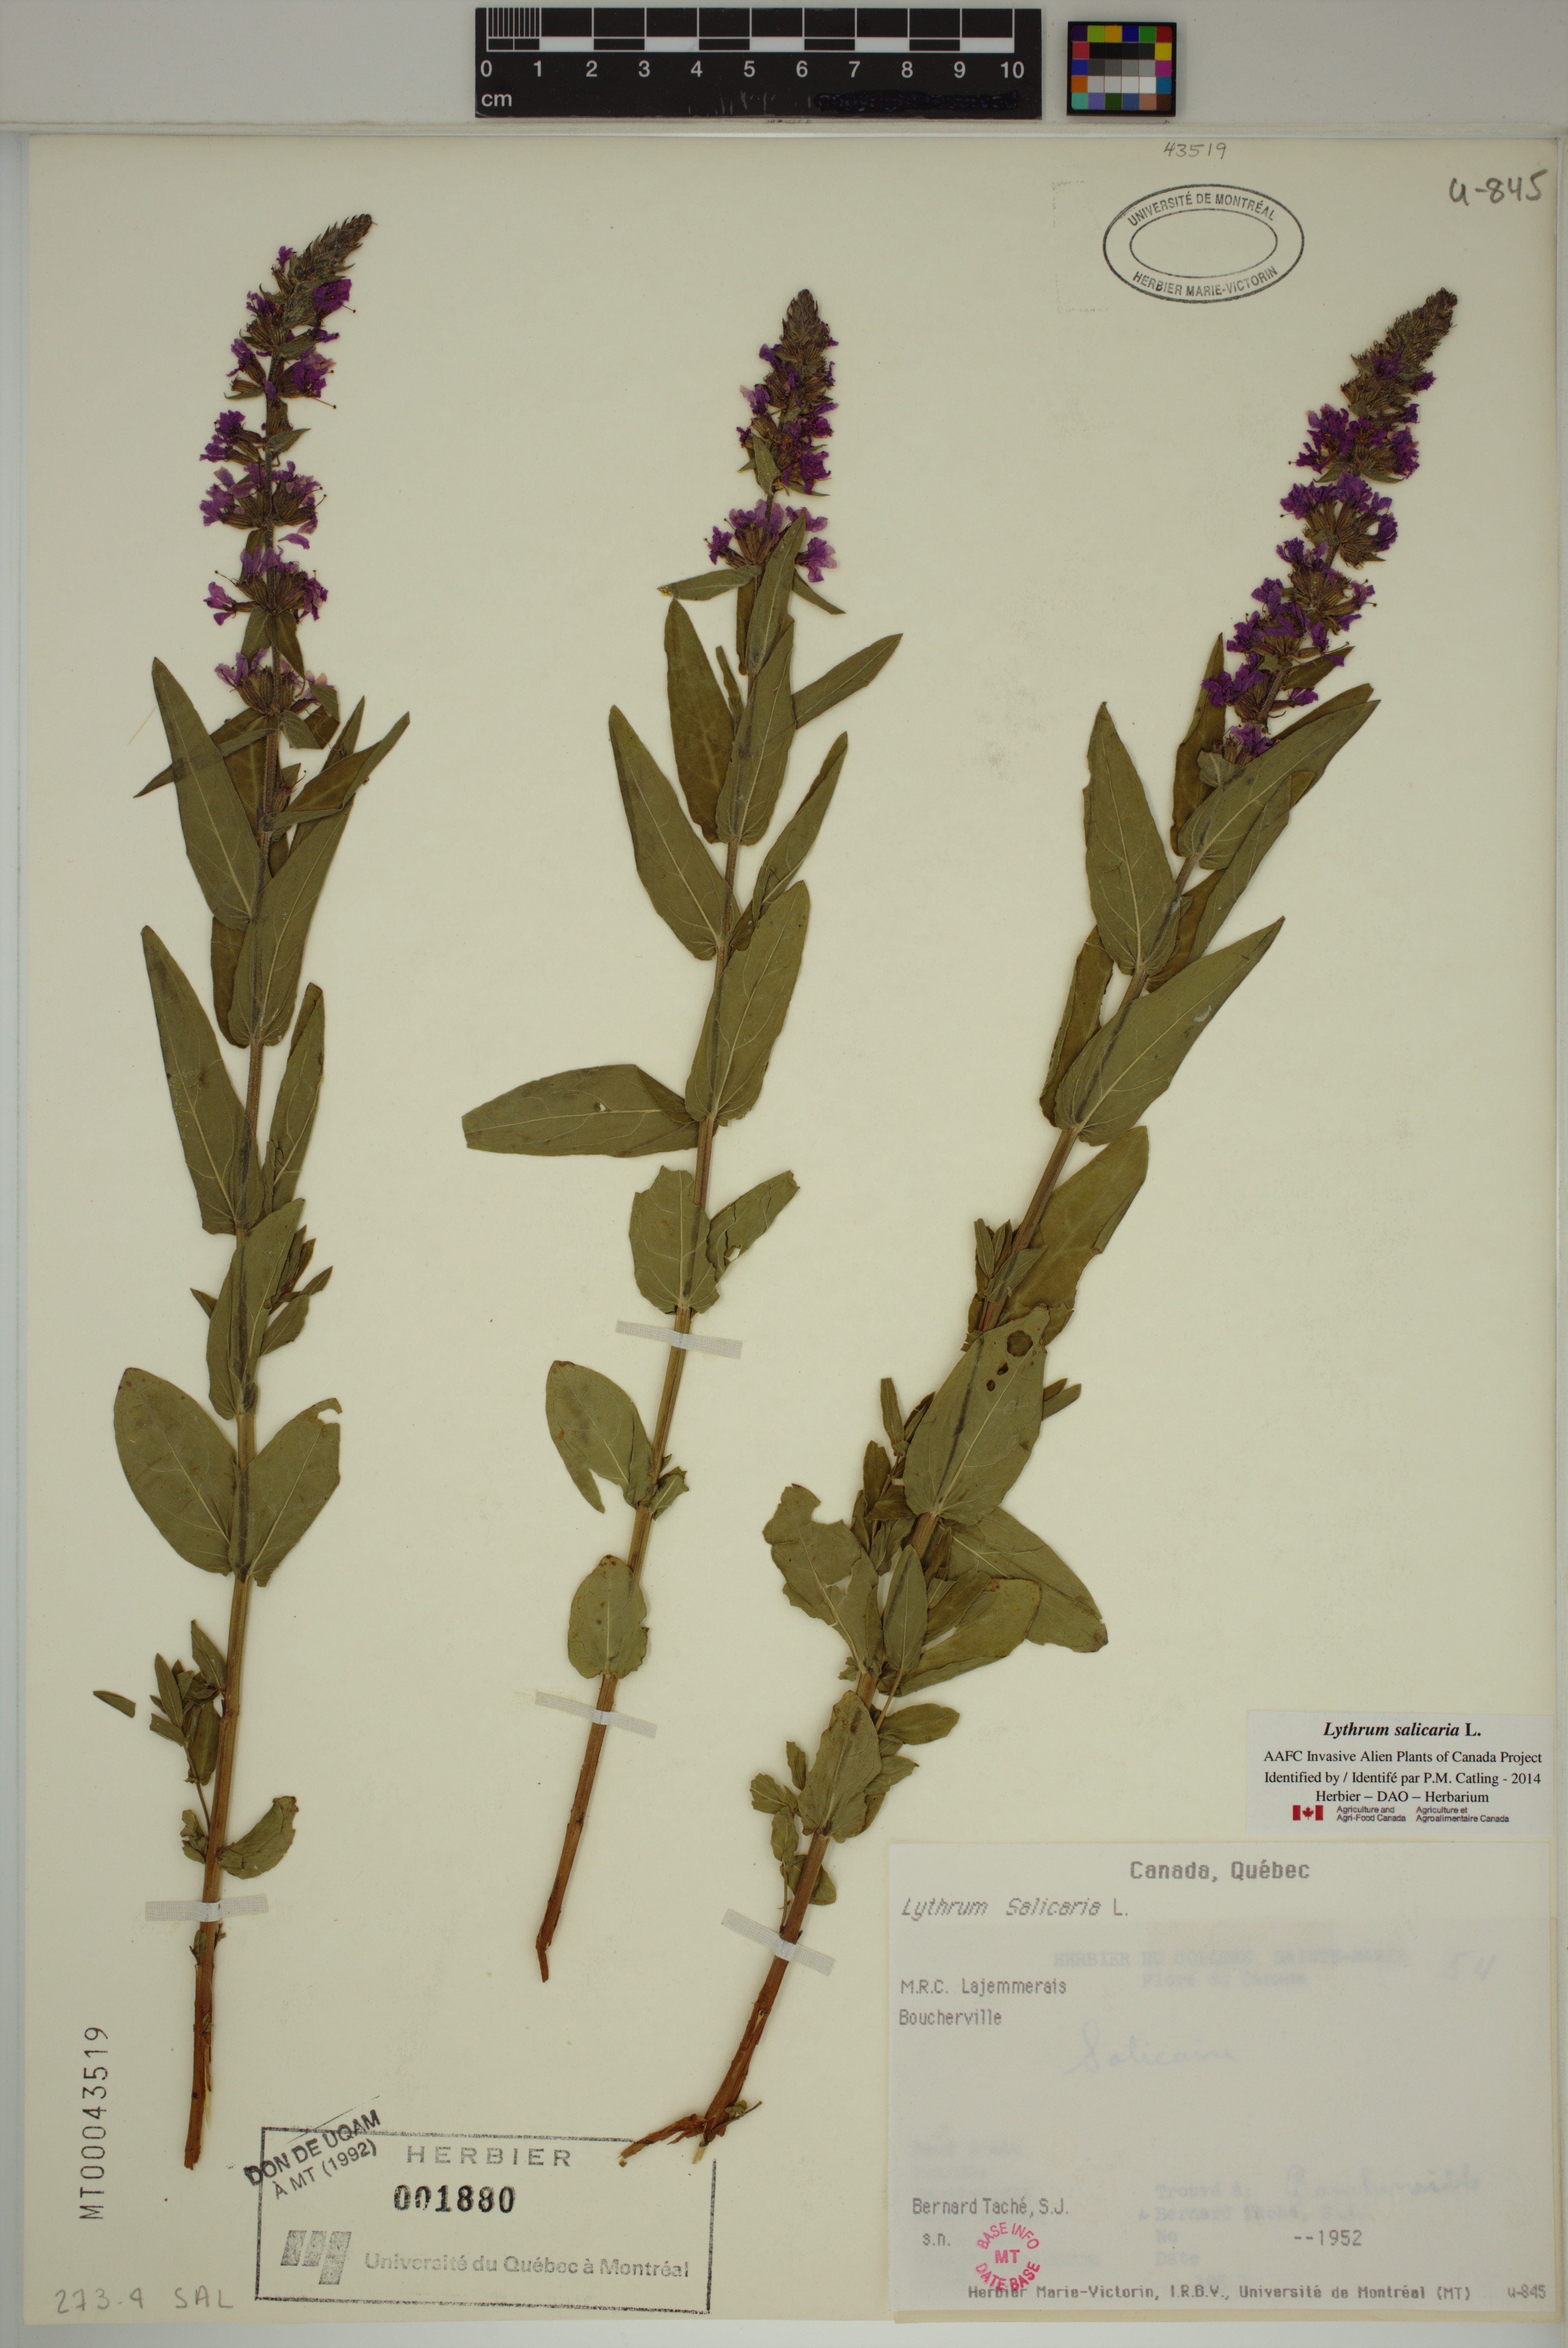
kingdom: Plantae
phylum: Tracheophyta
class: Magnoliopsida
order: Myrtales
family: Lythraceae
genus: Lythrum
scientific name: Lythrum salicaria
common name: Purple loosestrife
